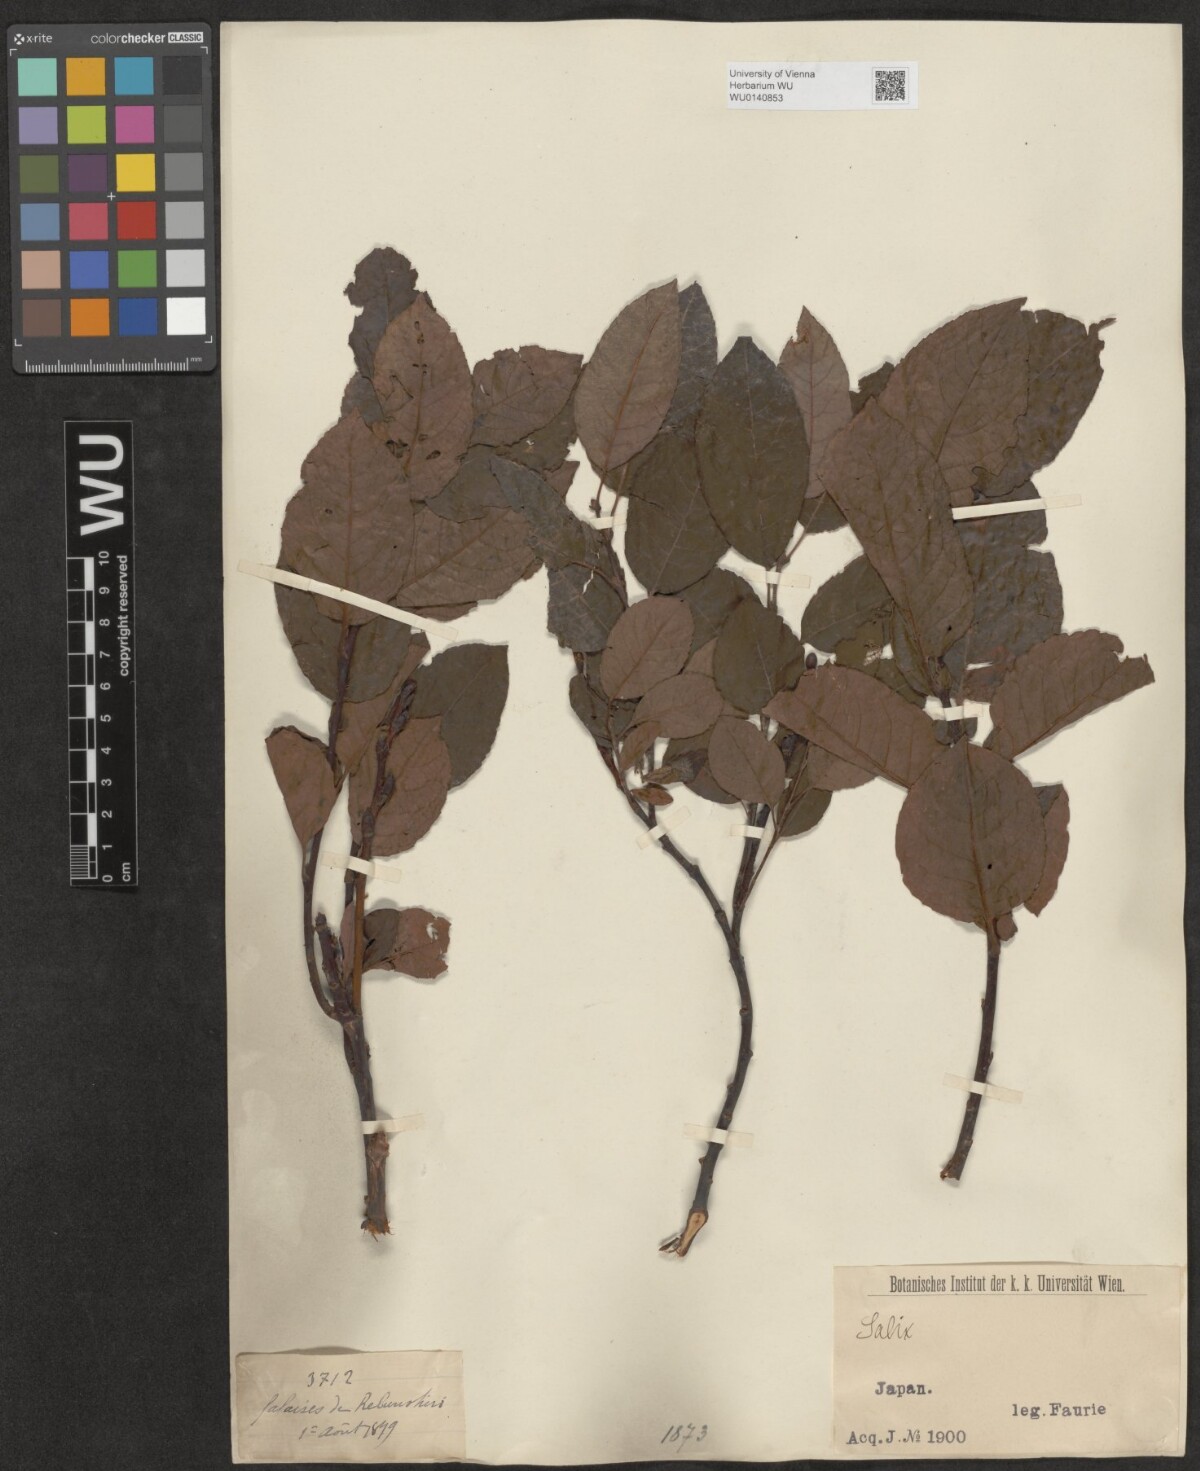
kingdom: Plantae
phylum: Tracheophyta
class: Magnoliopsida
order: Malpighiales
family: Salicaceae
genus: Salix
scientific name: Salix
